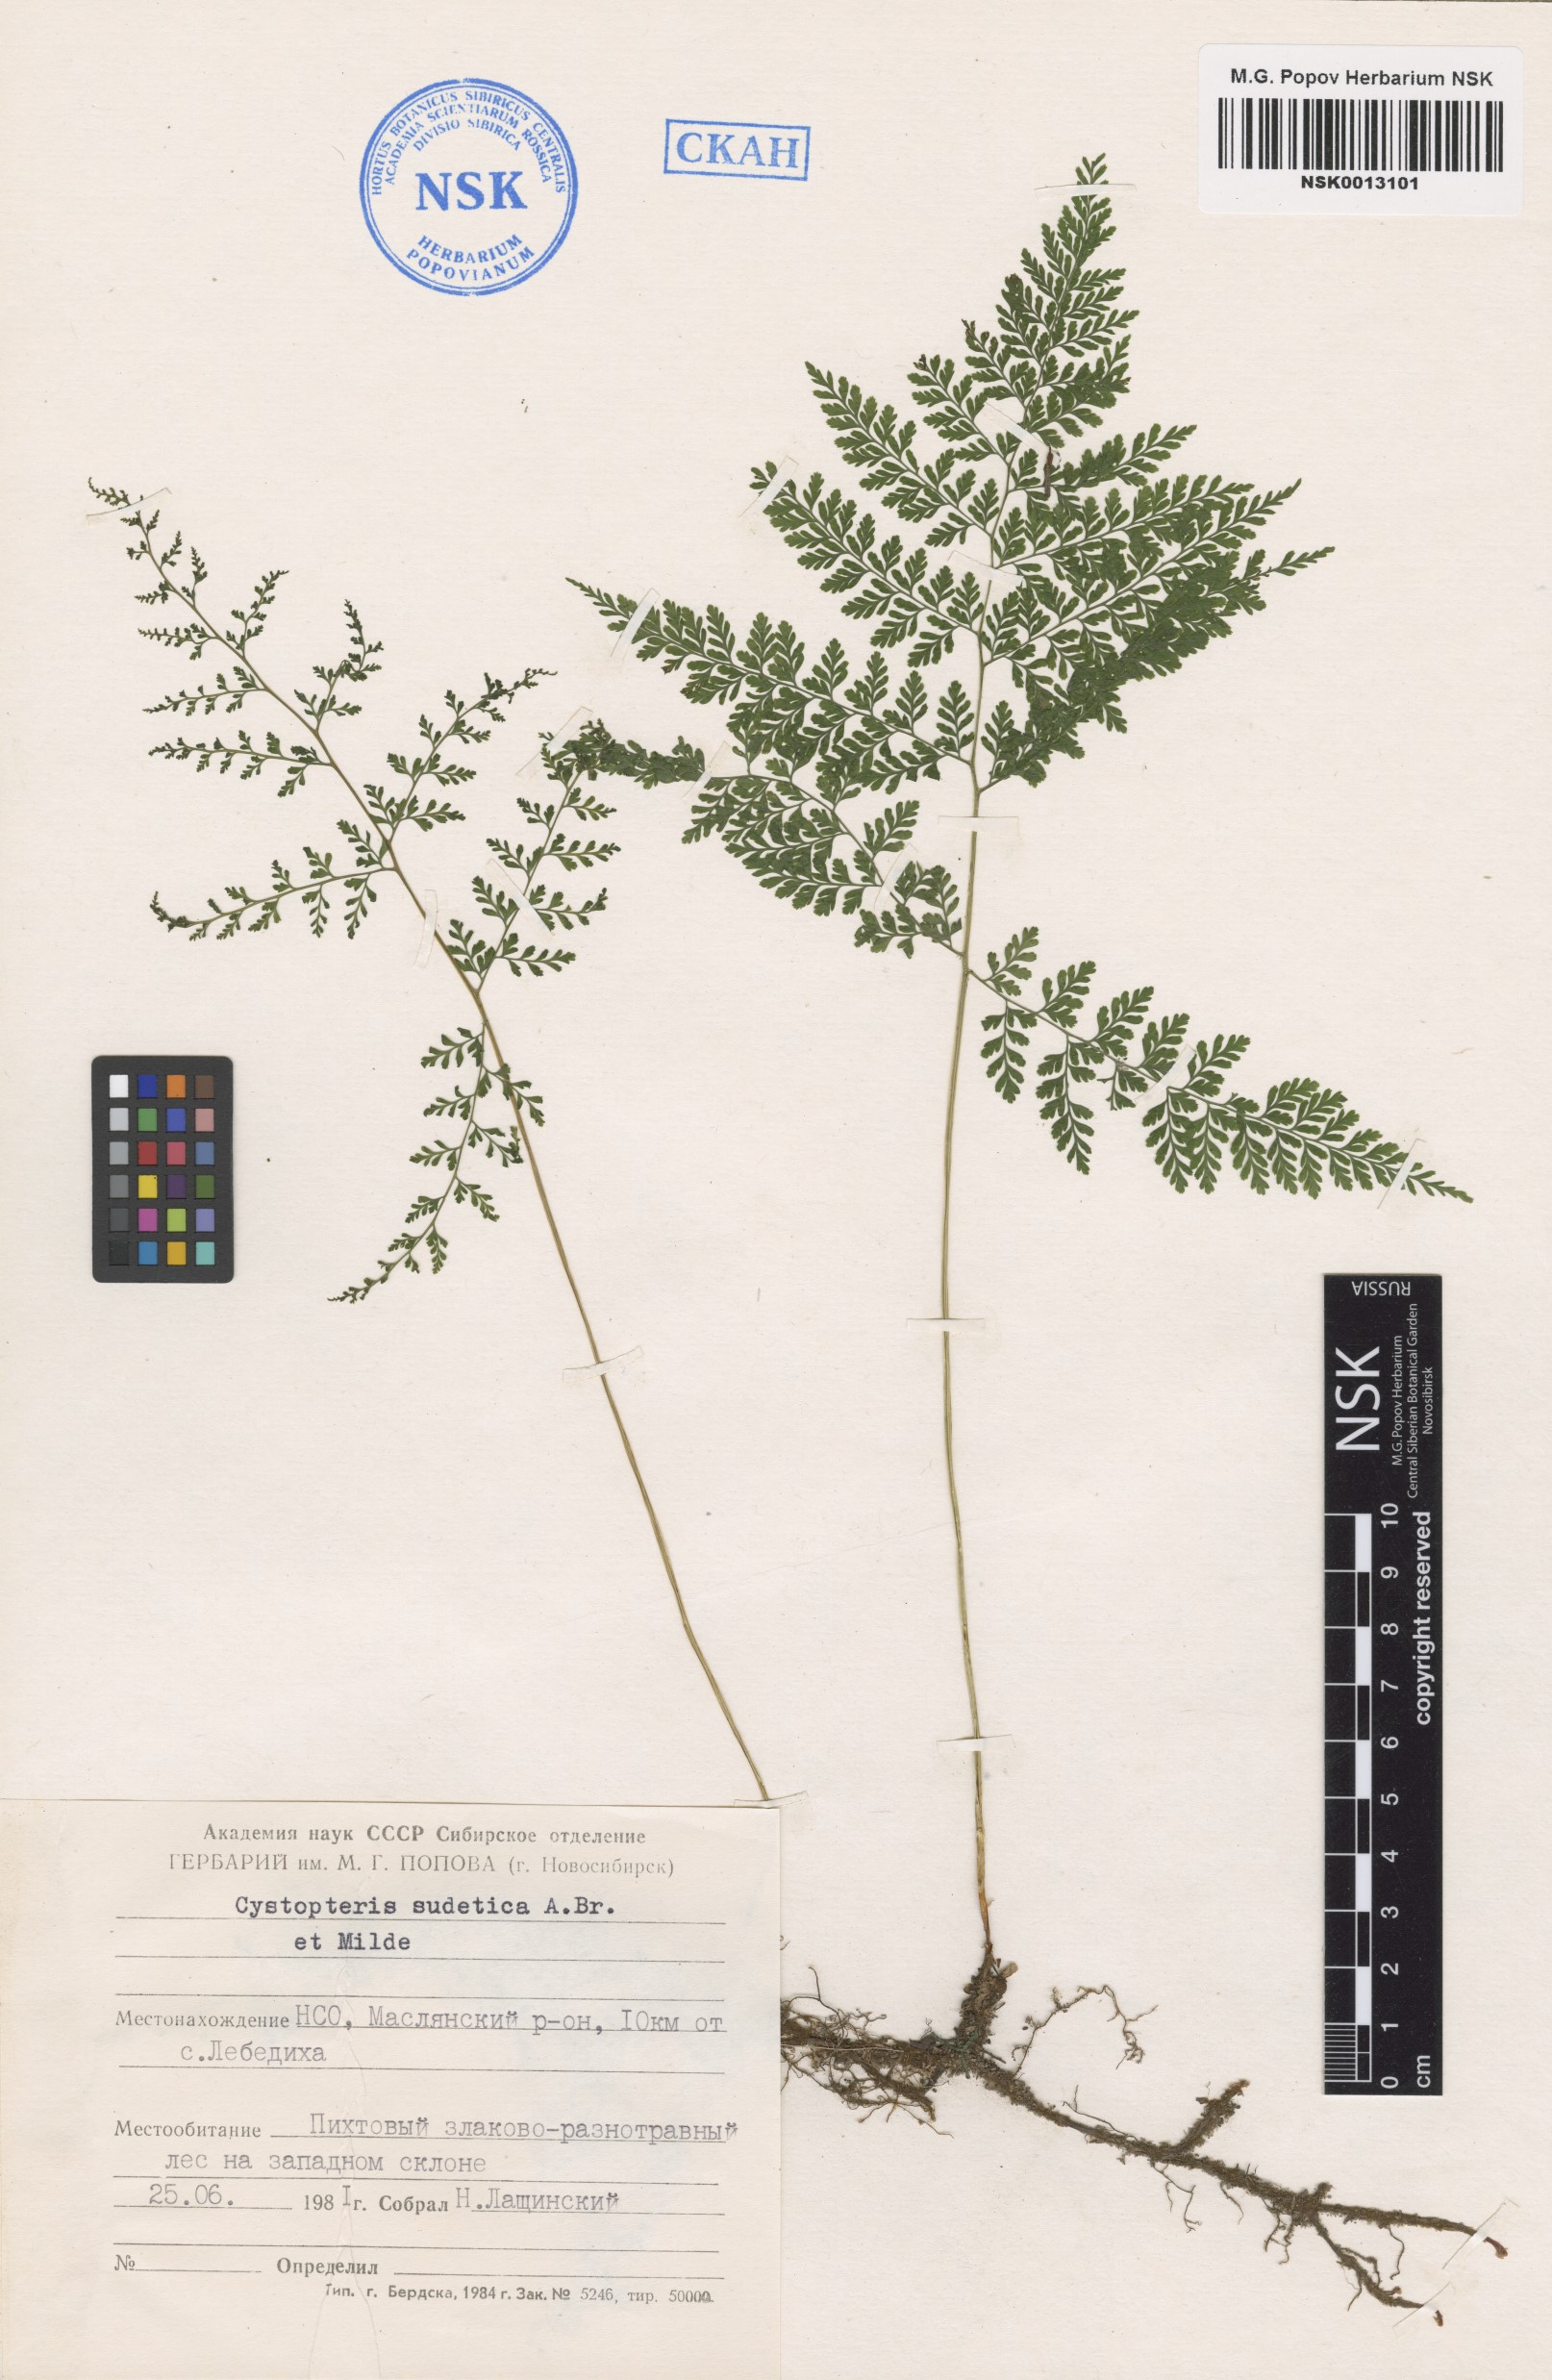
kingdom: Plantae
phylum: Tracheophyta
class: Polypodiopsida
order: Polypodiales
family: Cystopteridaceae
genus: Cystopteris
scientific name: Cystopteris sudetica
